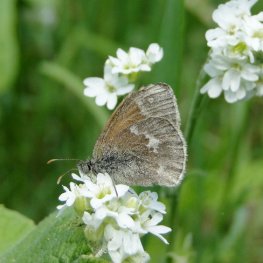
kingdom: Animalia
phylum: Arthropoda
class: Insecta
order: Lepidoptera
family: Nymphalidae
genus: Coenonympha
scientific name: Coenonympha tullia
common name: Large Heath
